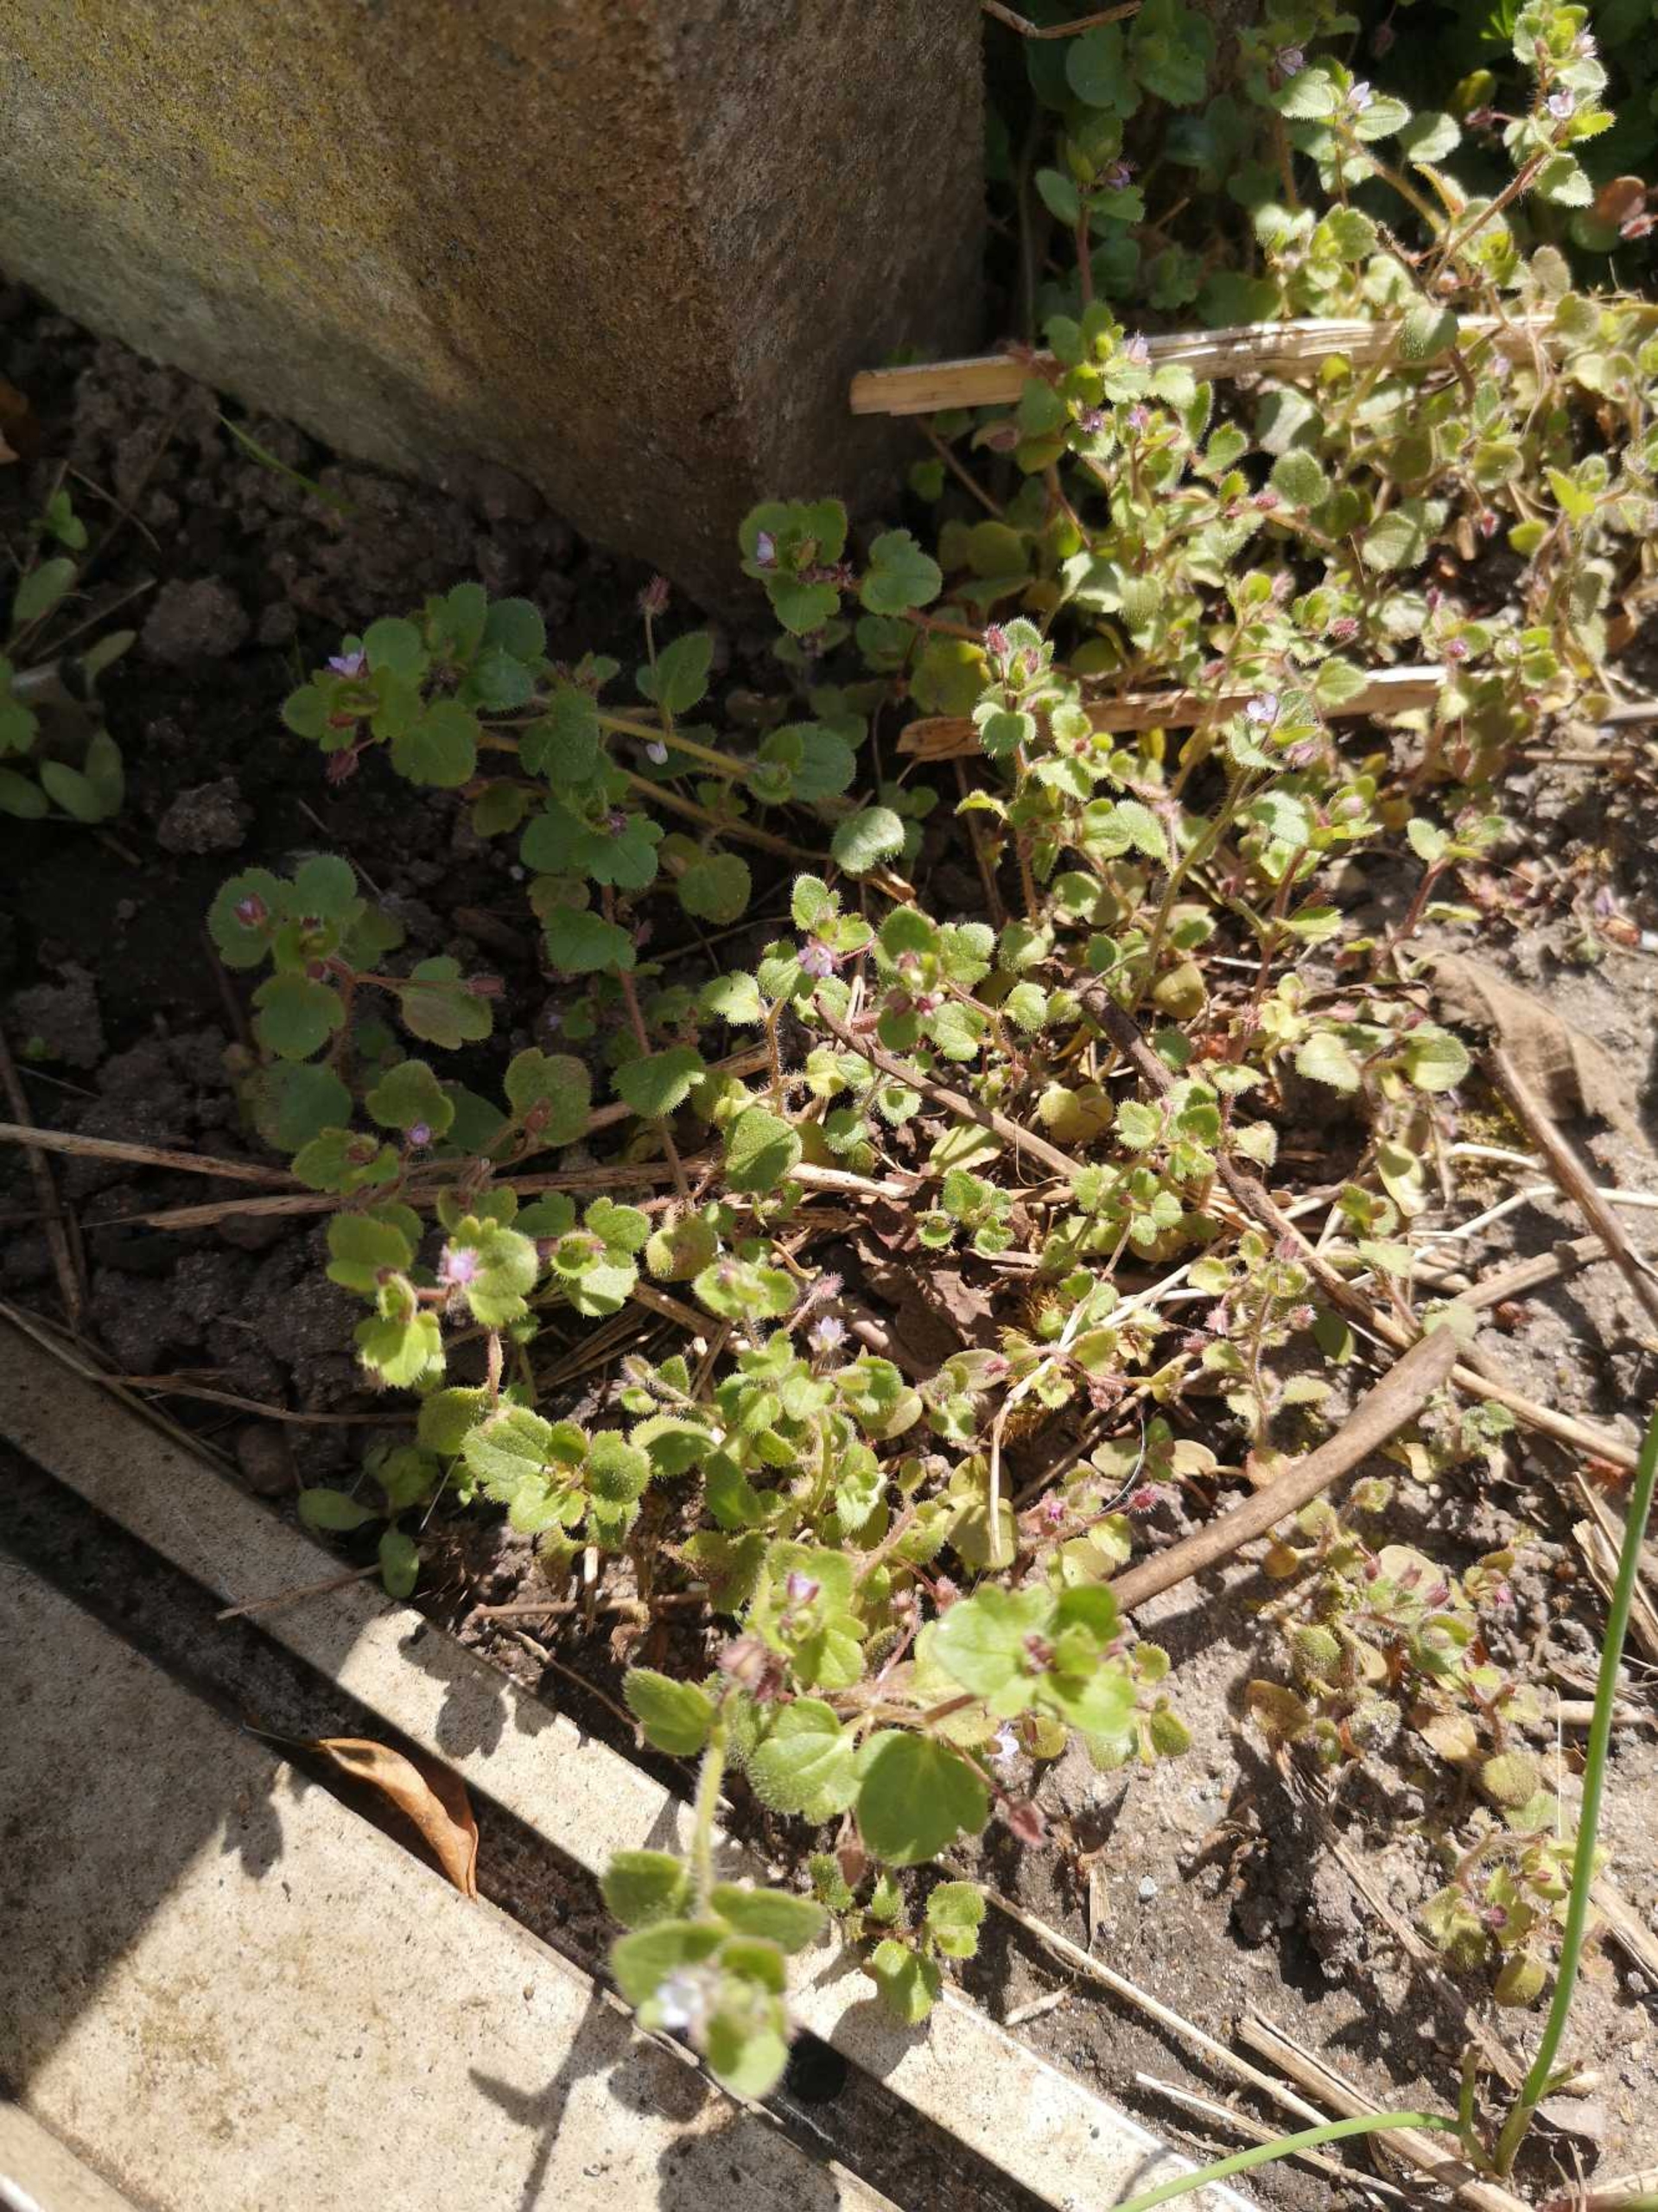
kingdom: Plantae
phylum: Tracheophyta
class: Magnoliopsida
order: Lamiales
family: Plantaginaceae
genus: Veronica
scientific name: Veronica hederifolia
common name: Vedbend-ærenpris
